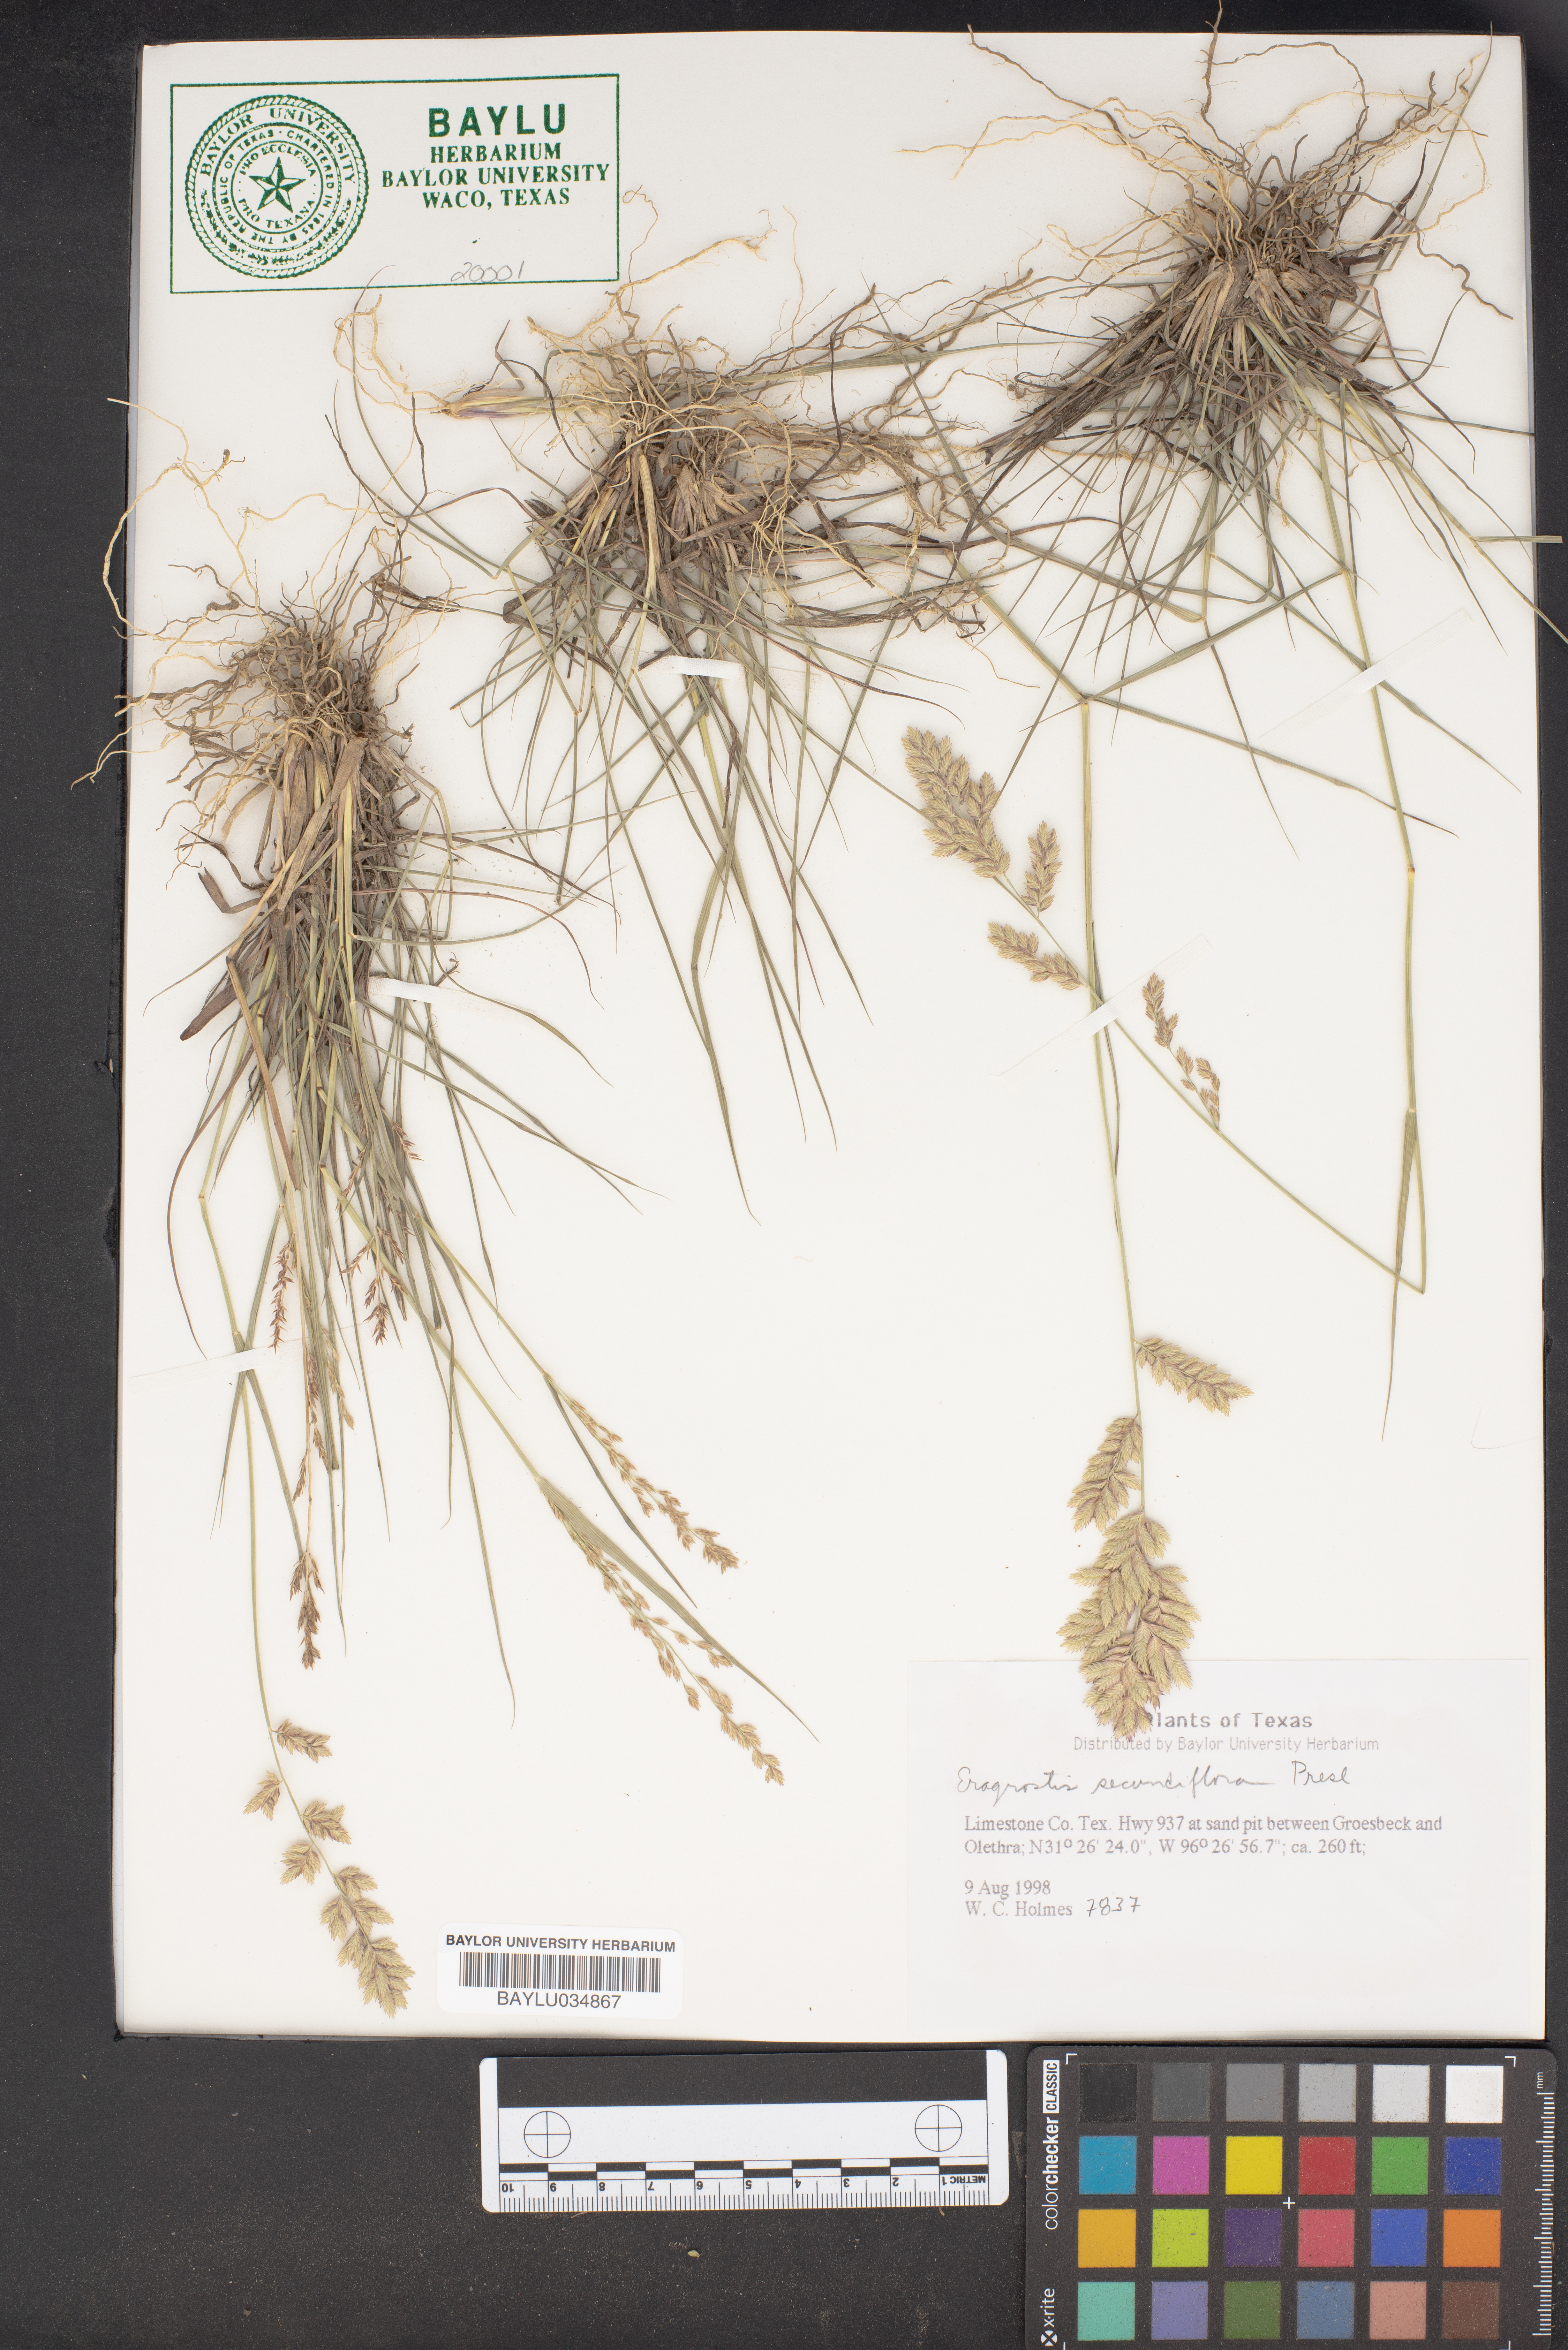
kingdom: Plantae
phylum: Tracheophyta
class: Liliopsida
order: Poales
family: Poaceae
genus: Eragrostis
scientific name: Eragrostis secundiflora
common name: Red love grass
